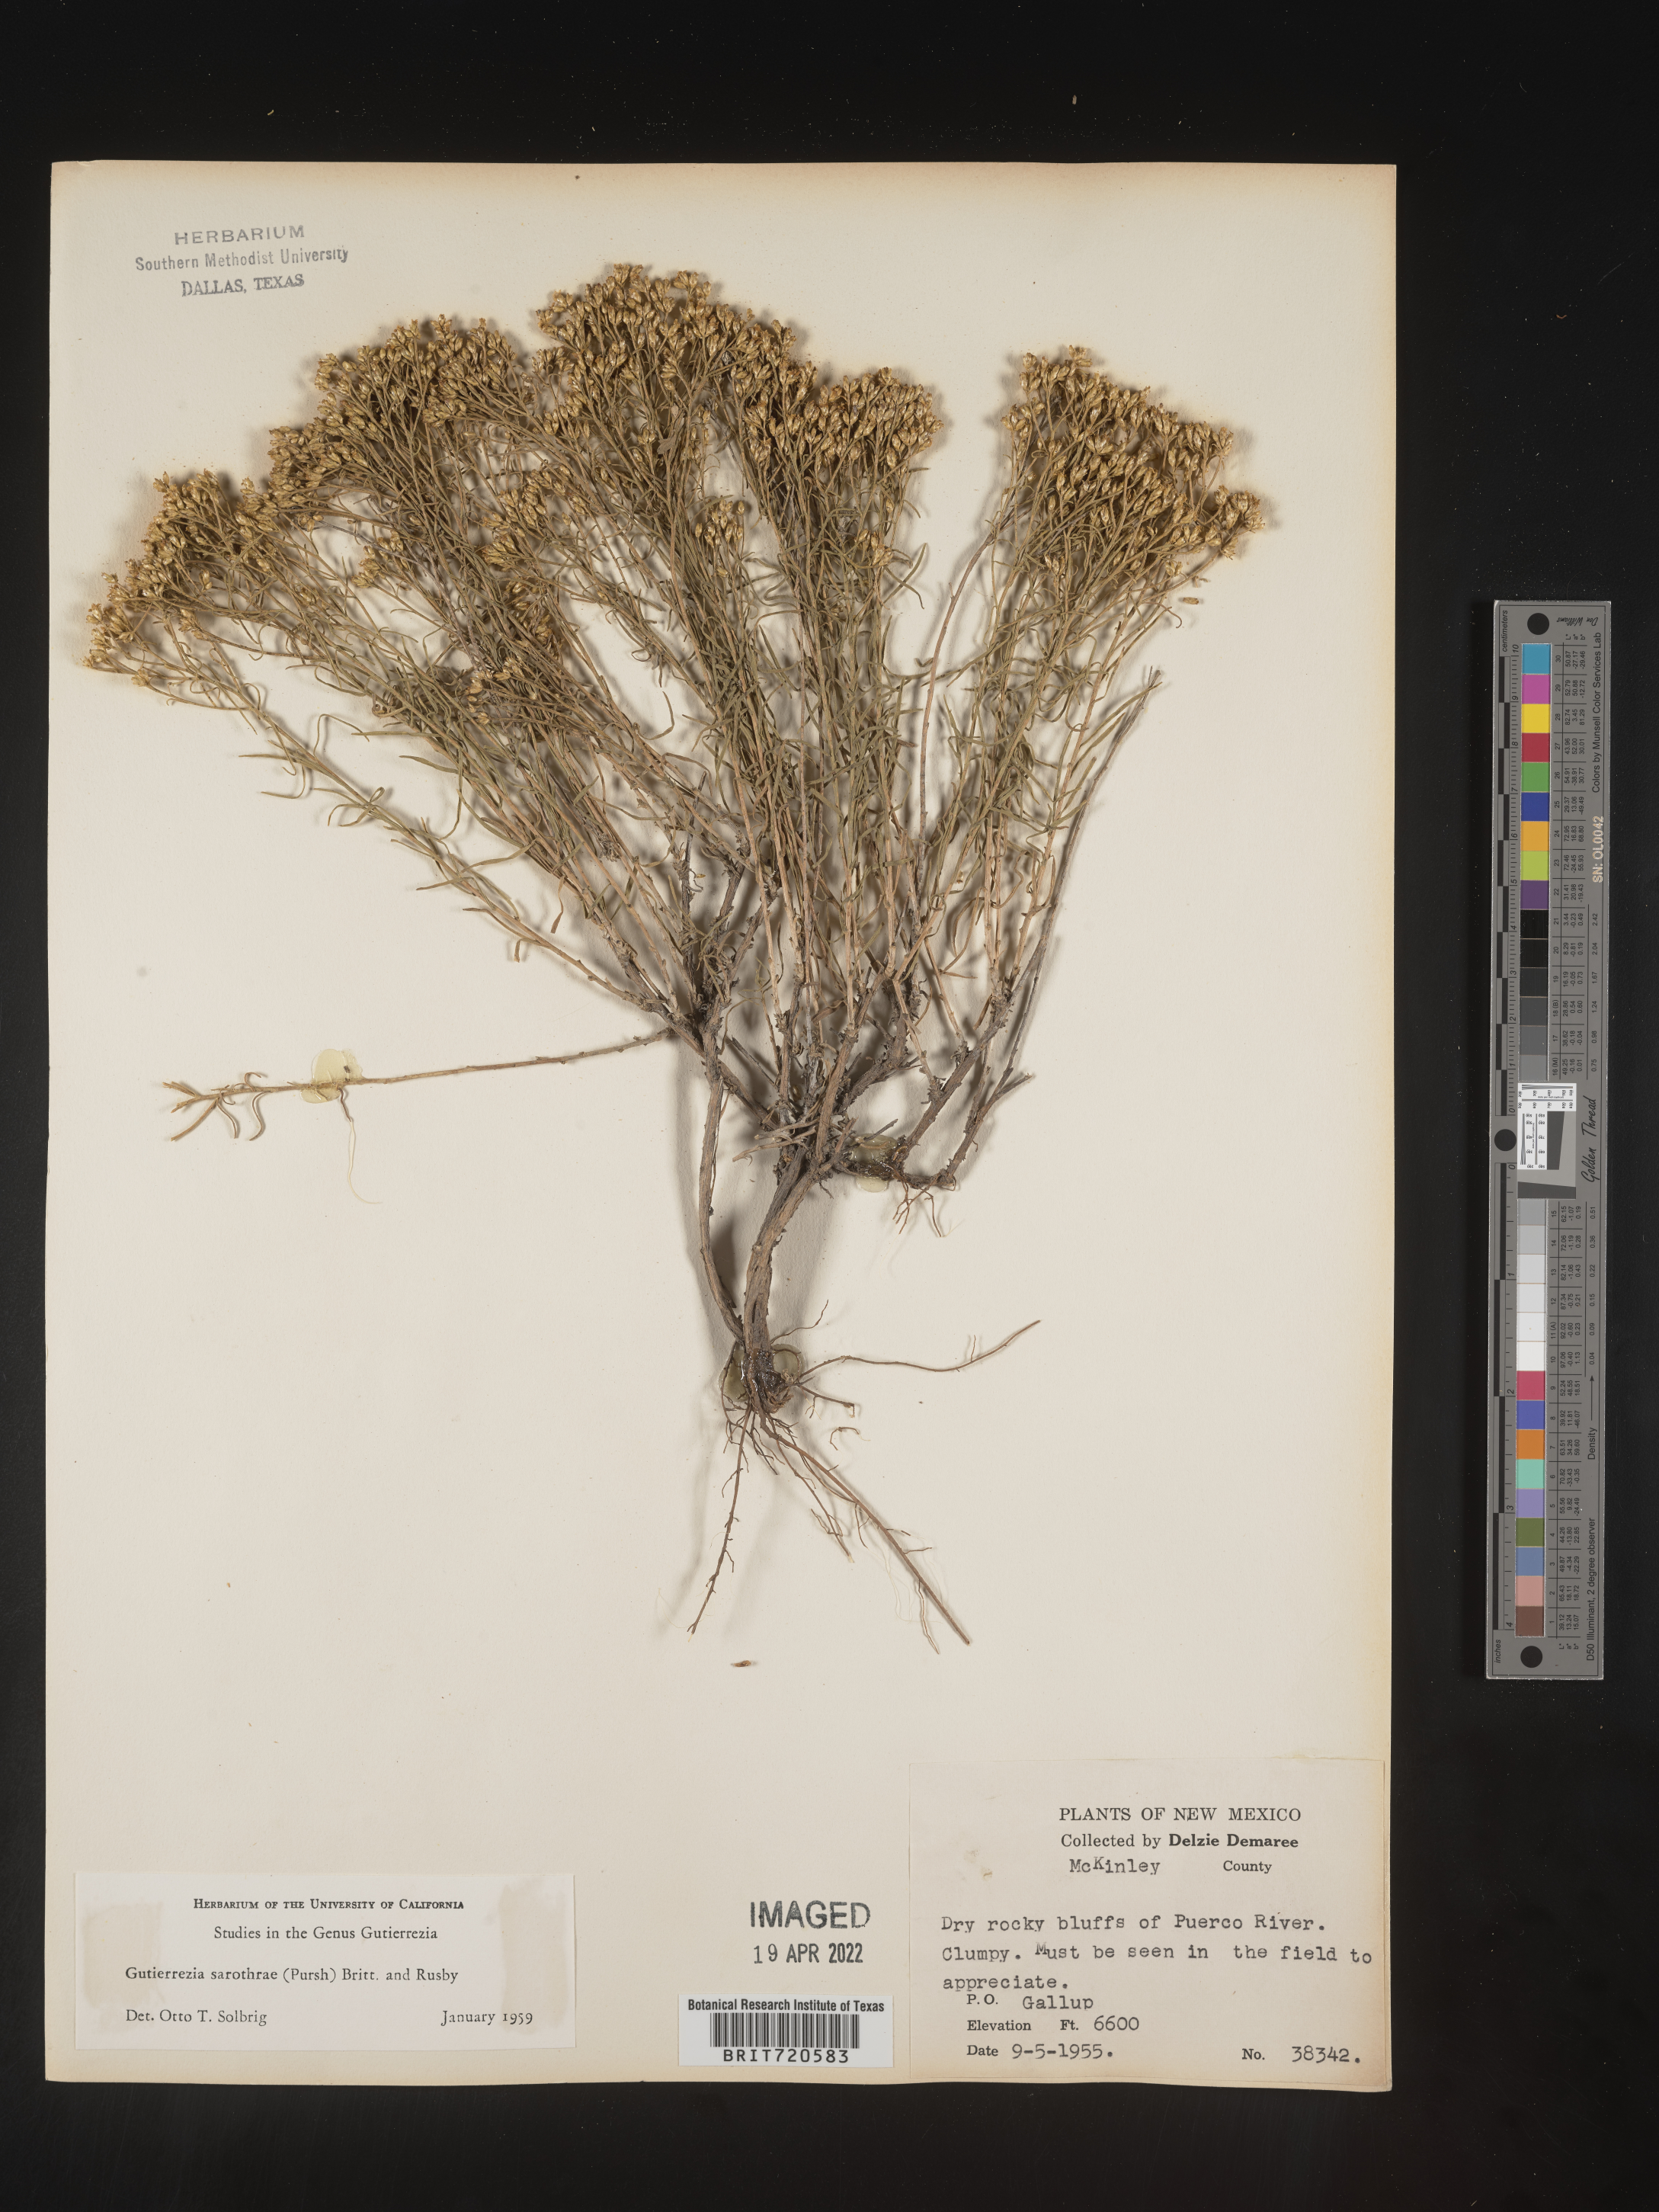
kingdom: Plantae
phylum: Tracheophyta
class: Magnoliopsida
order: Asterales
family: Asteraceae
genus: Gutierrezia
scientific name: Gutierrezia sarothrae
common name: Broom snakeweed
